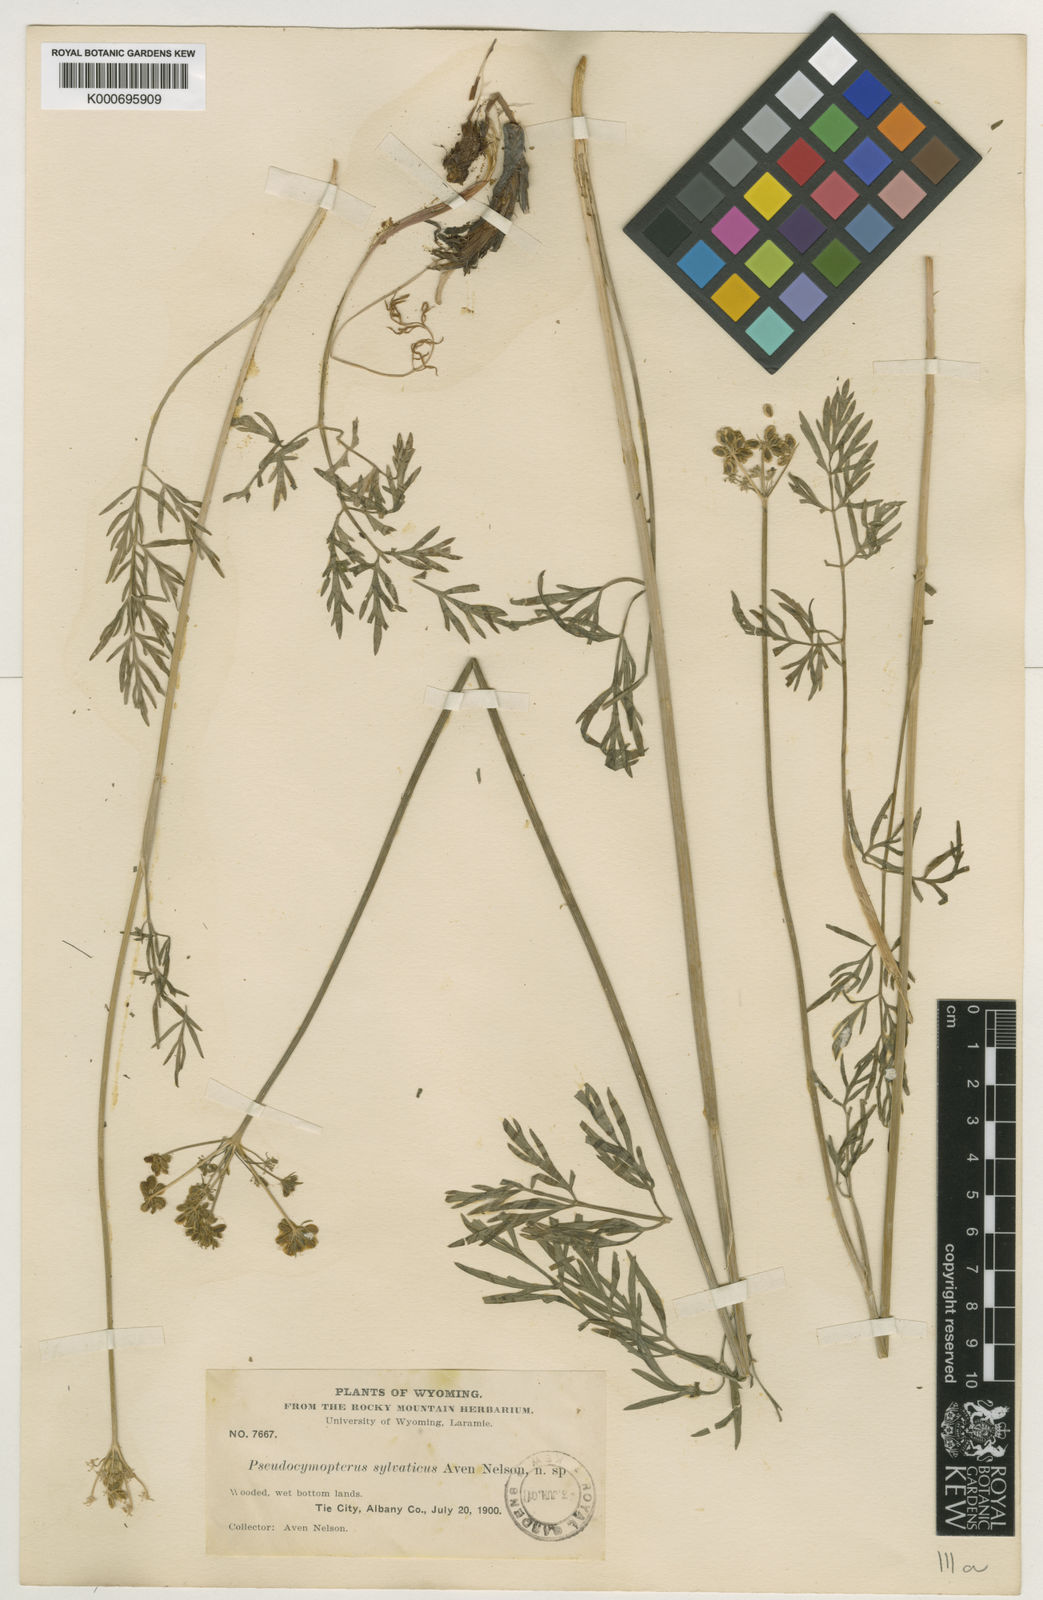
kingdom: Plantae
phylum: Tracheophyta
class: Magnoliopsida
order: Apiales
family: Apiaceae
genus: Cymopterus
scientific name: Cymopterus lemmonii
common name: Lemmon's spring-parsley
